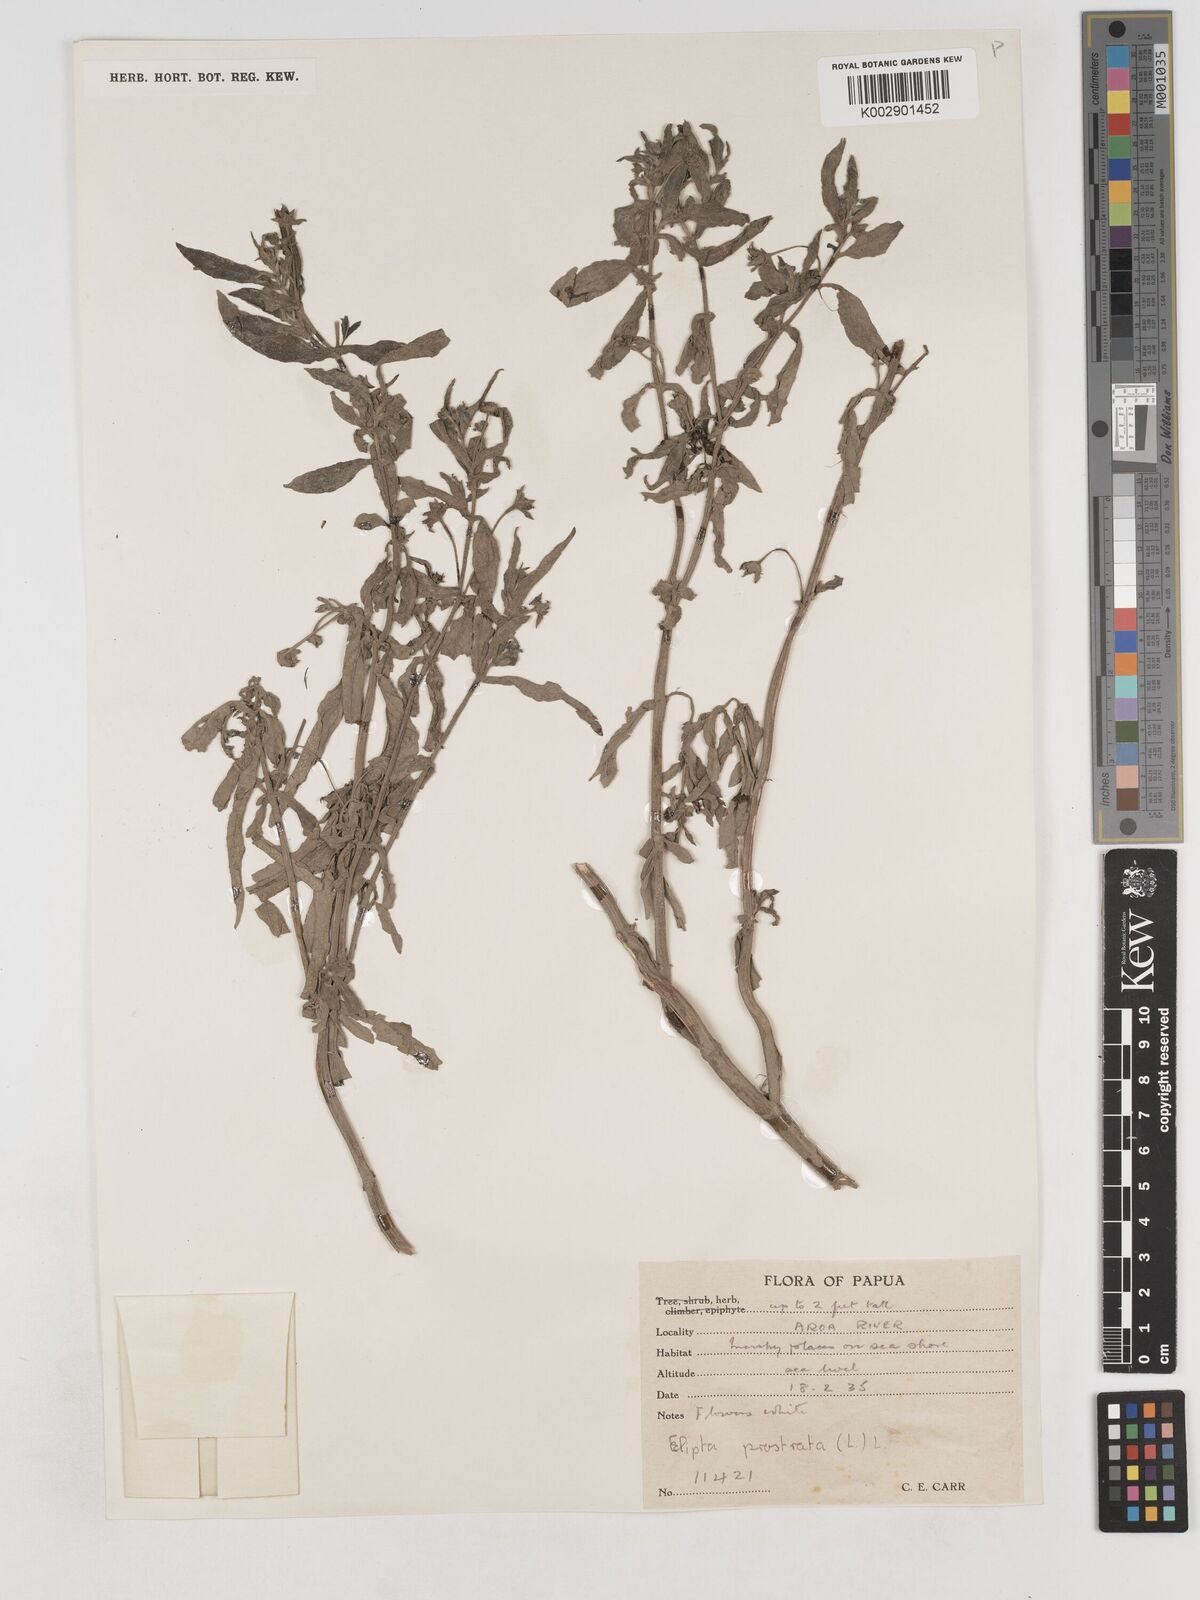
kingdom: Plantae
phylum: Tracheophyta
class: Magnoliopsida
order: Asterales
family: Asteraceae
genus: Eclipta
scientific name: Eclipta prostrata
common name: False daisy
